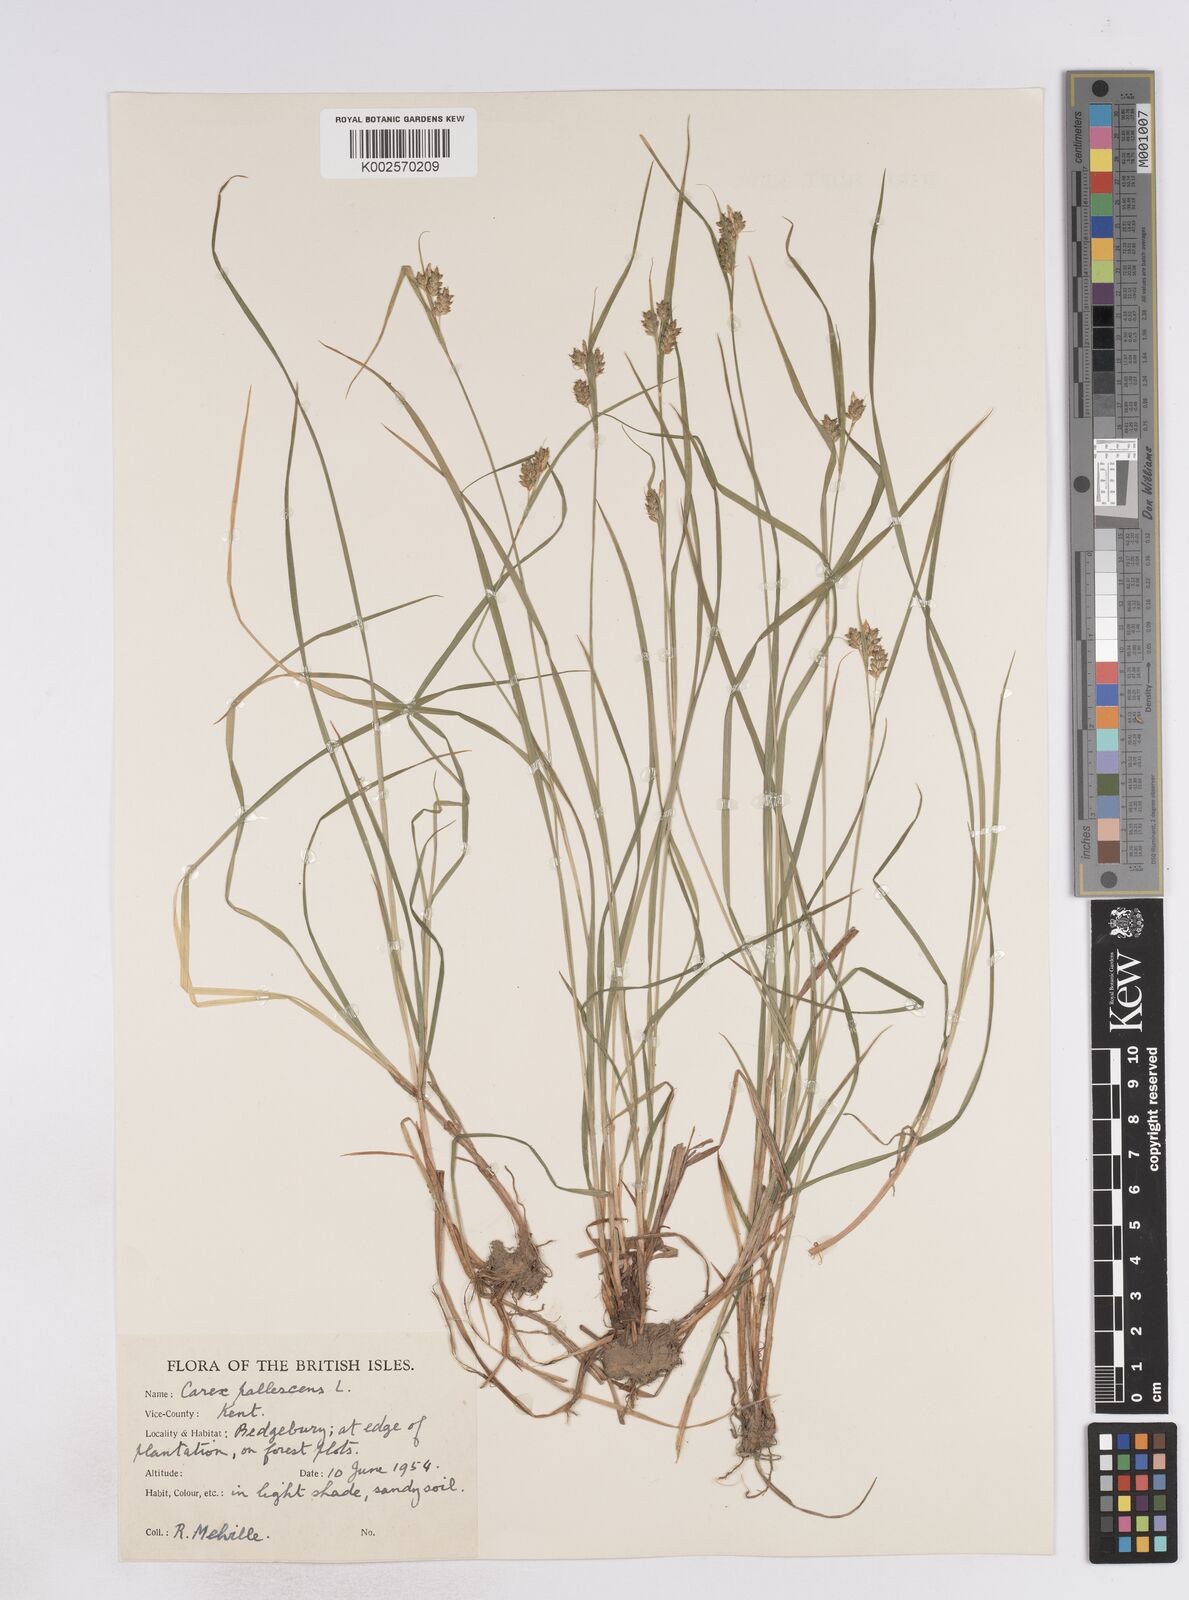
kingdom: Plantae
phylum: Tracheophyta
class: Liliopsida
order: Poales
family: Cyperaceae
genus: Carex
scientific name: Carex pallescens
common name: Pale sedge
